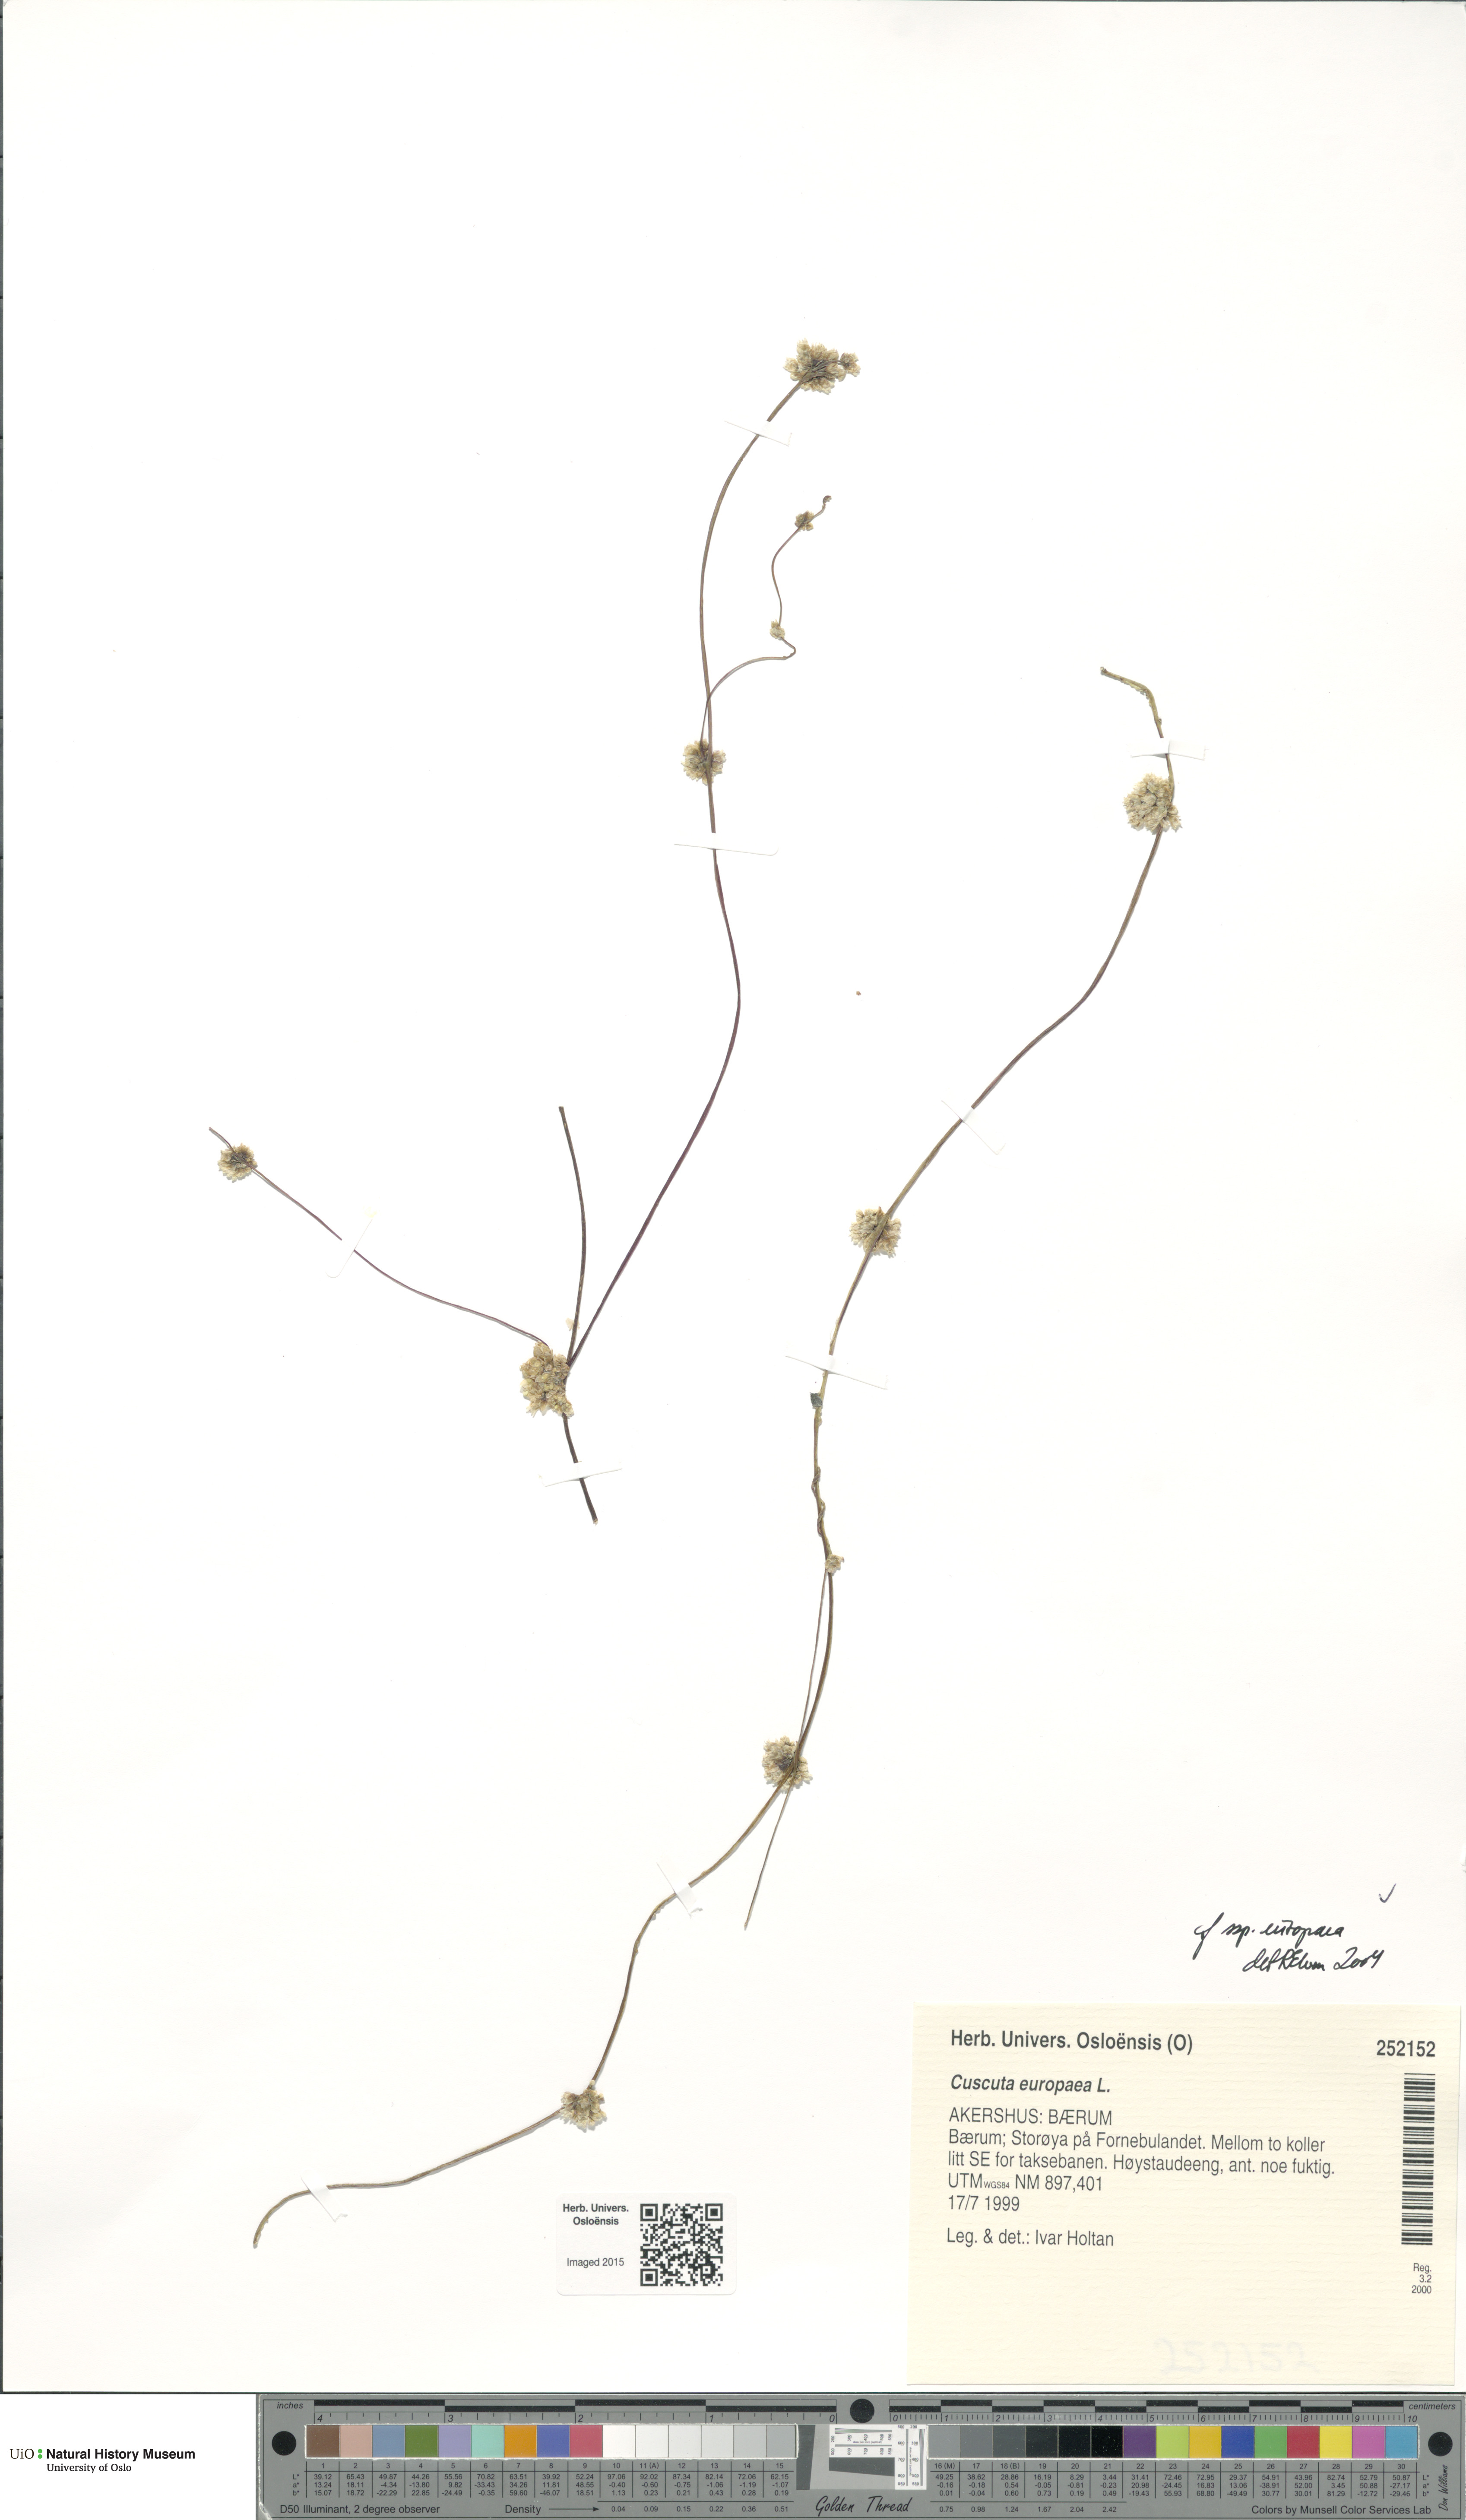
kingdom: Plantae
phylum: Tracheophyta
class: Magnoliopsida
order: Solanales
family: Convolvulaceae
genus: Cuscuta
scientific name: Cuscuta europaea
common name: Greater dodder
